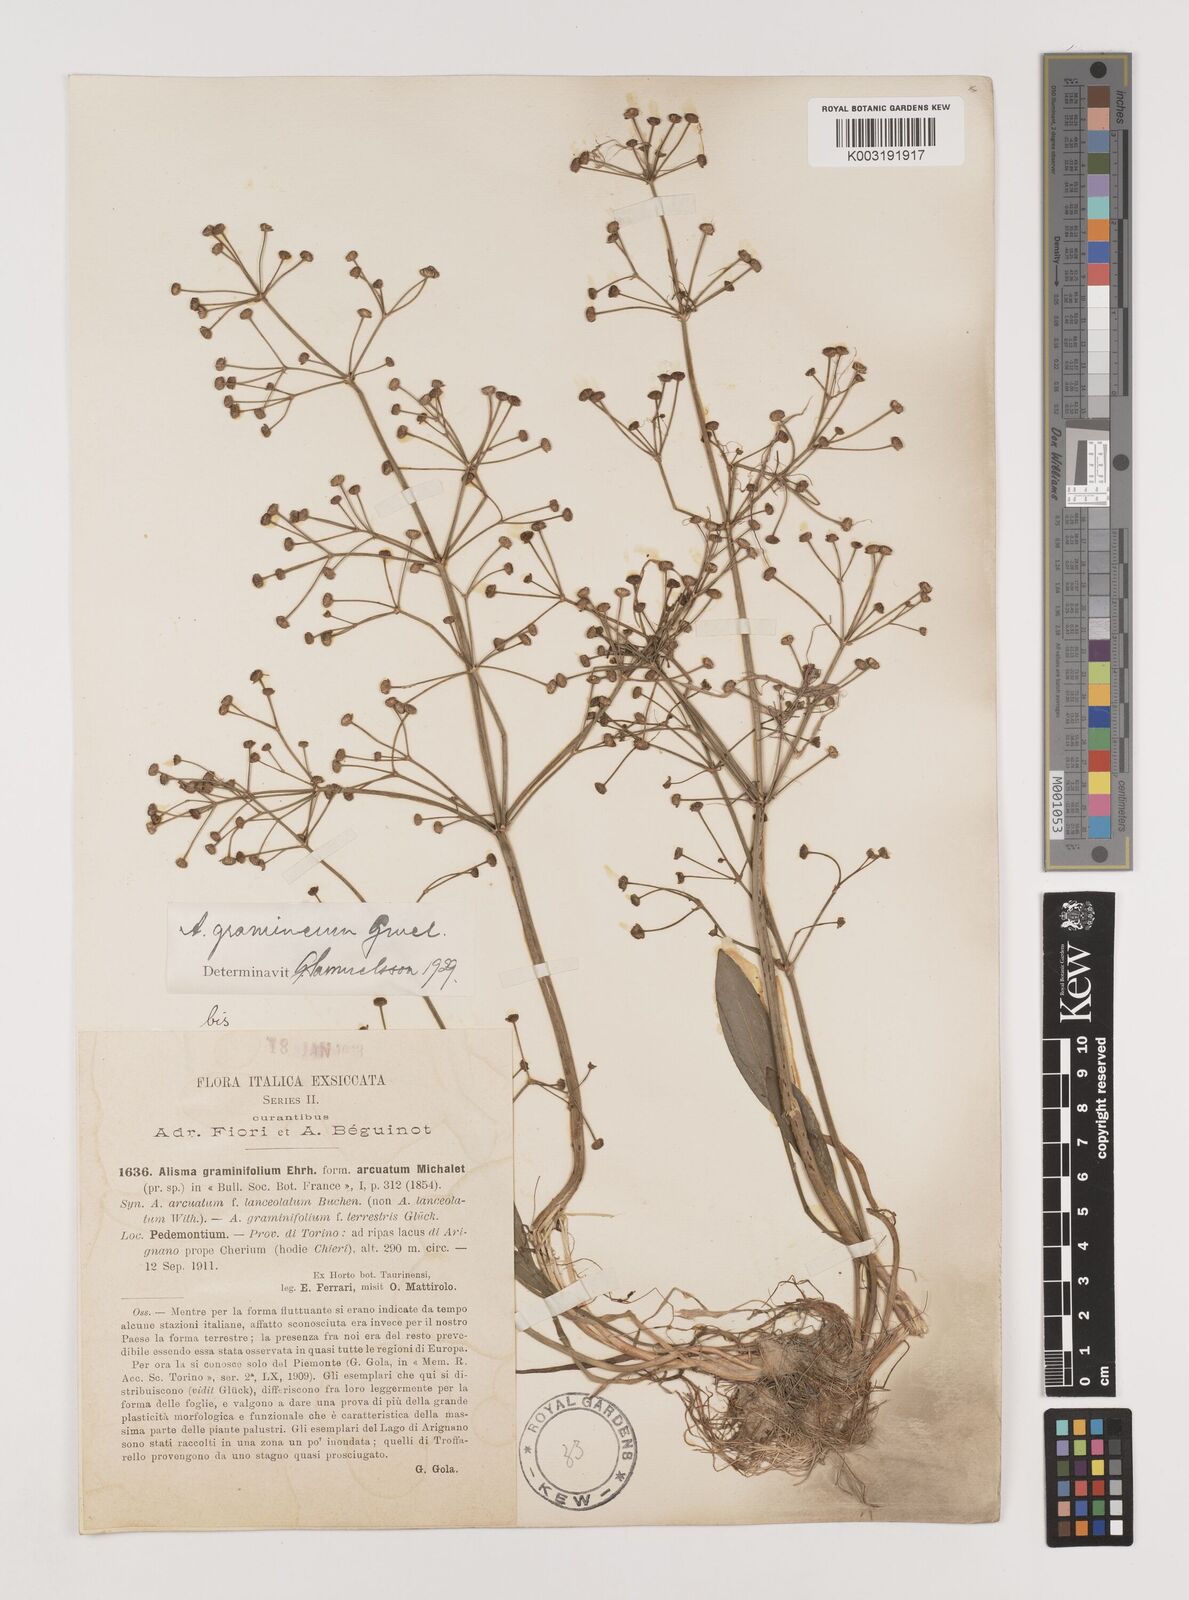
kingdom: Plantae
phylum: Tracheophyta
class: Liliopsida
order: Alismatales
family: Alismataceae
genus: Alisma
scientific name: Alisma gramineum
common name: Ribbon-leaved water-plantain
